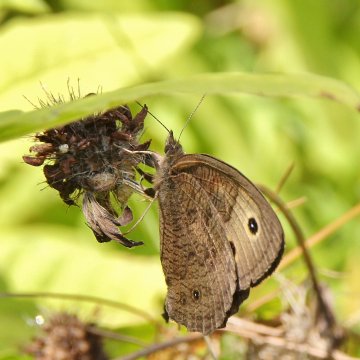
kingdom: Animalia
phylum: Arthropoda
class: Insecta
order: Lepidoptera
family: Nymphalidae
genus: Cercyonis
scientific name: Cercyonis pegala
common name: Common Wood-Nymph
